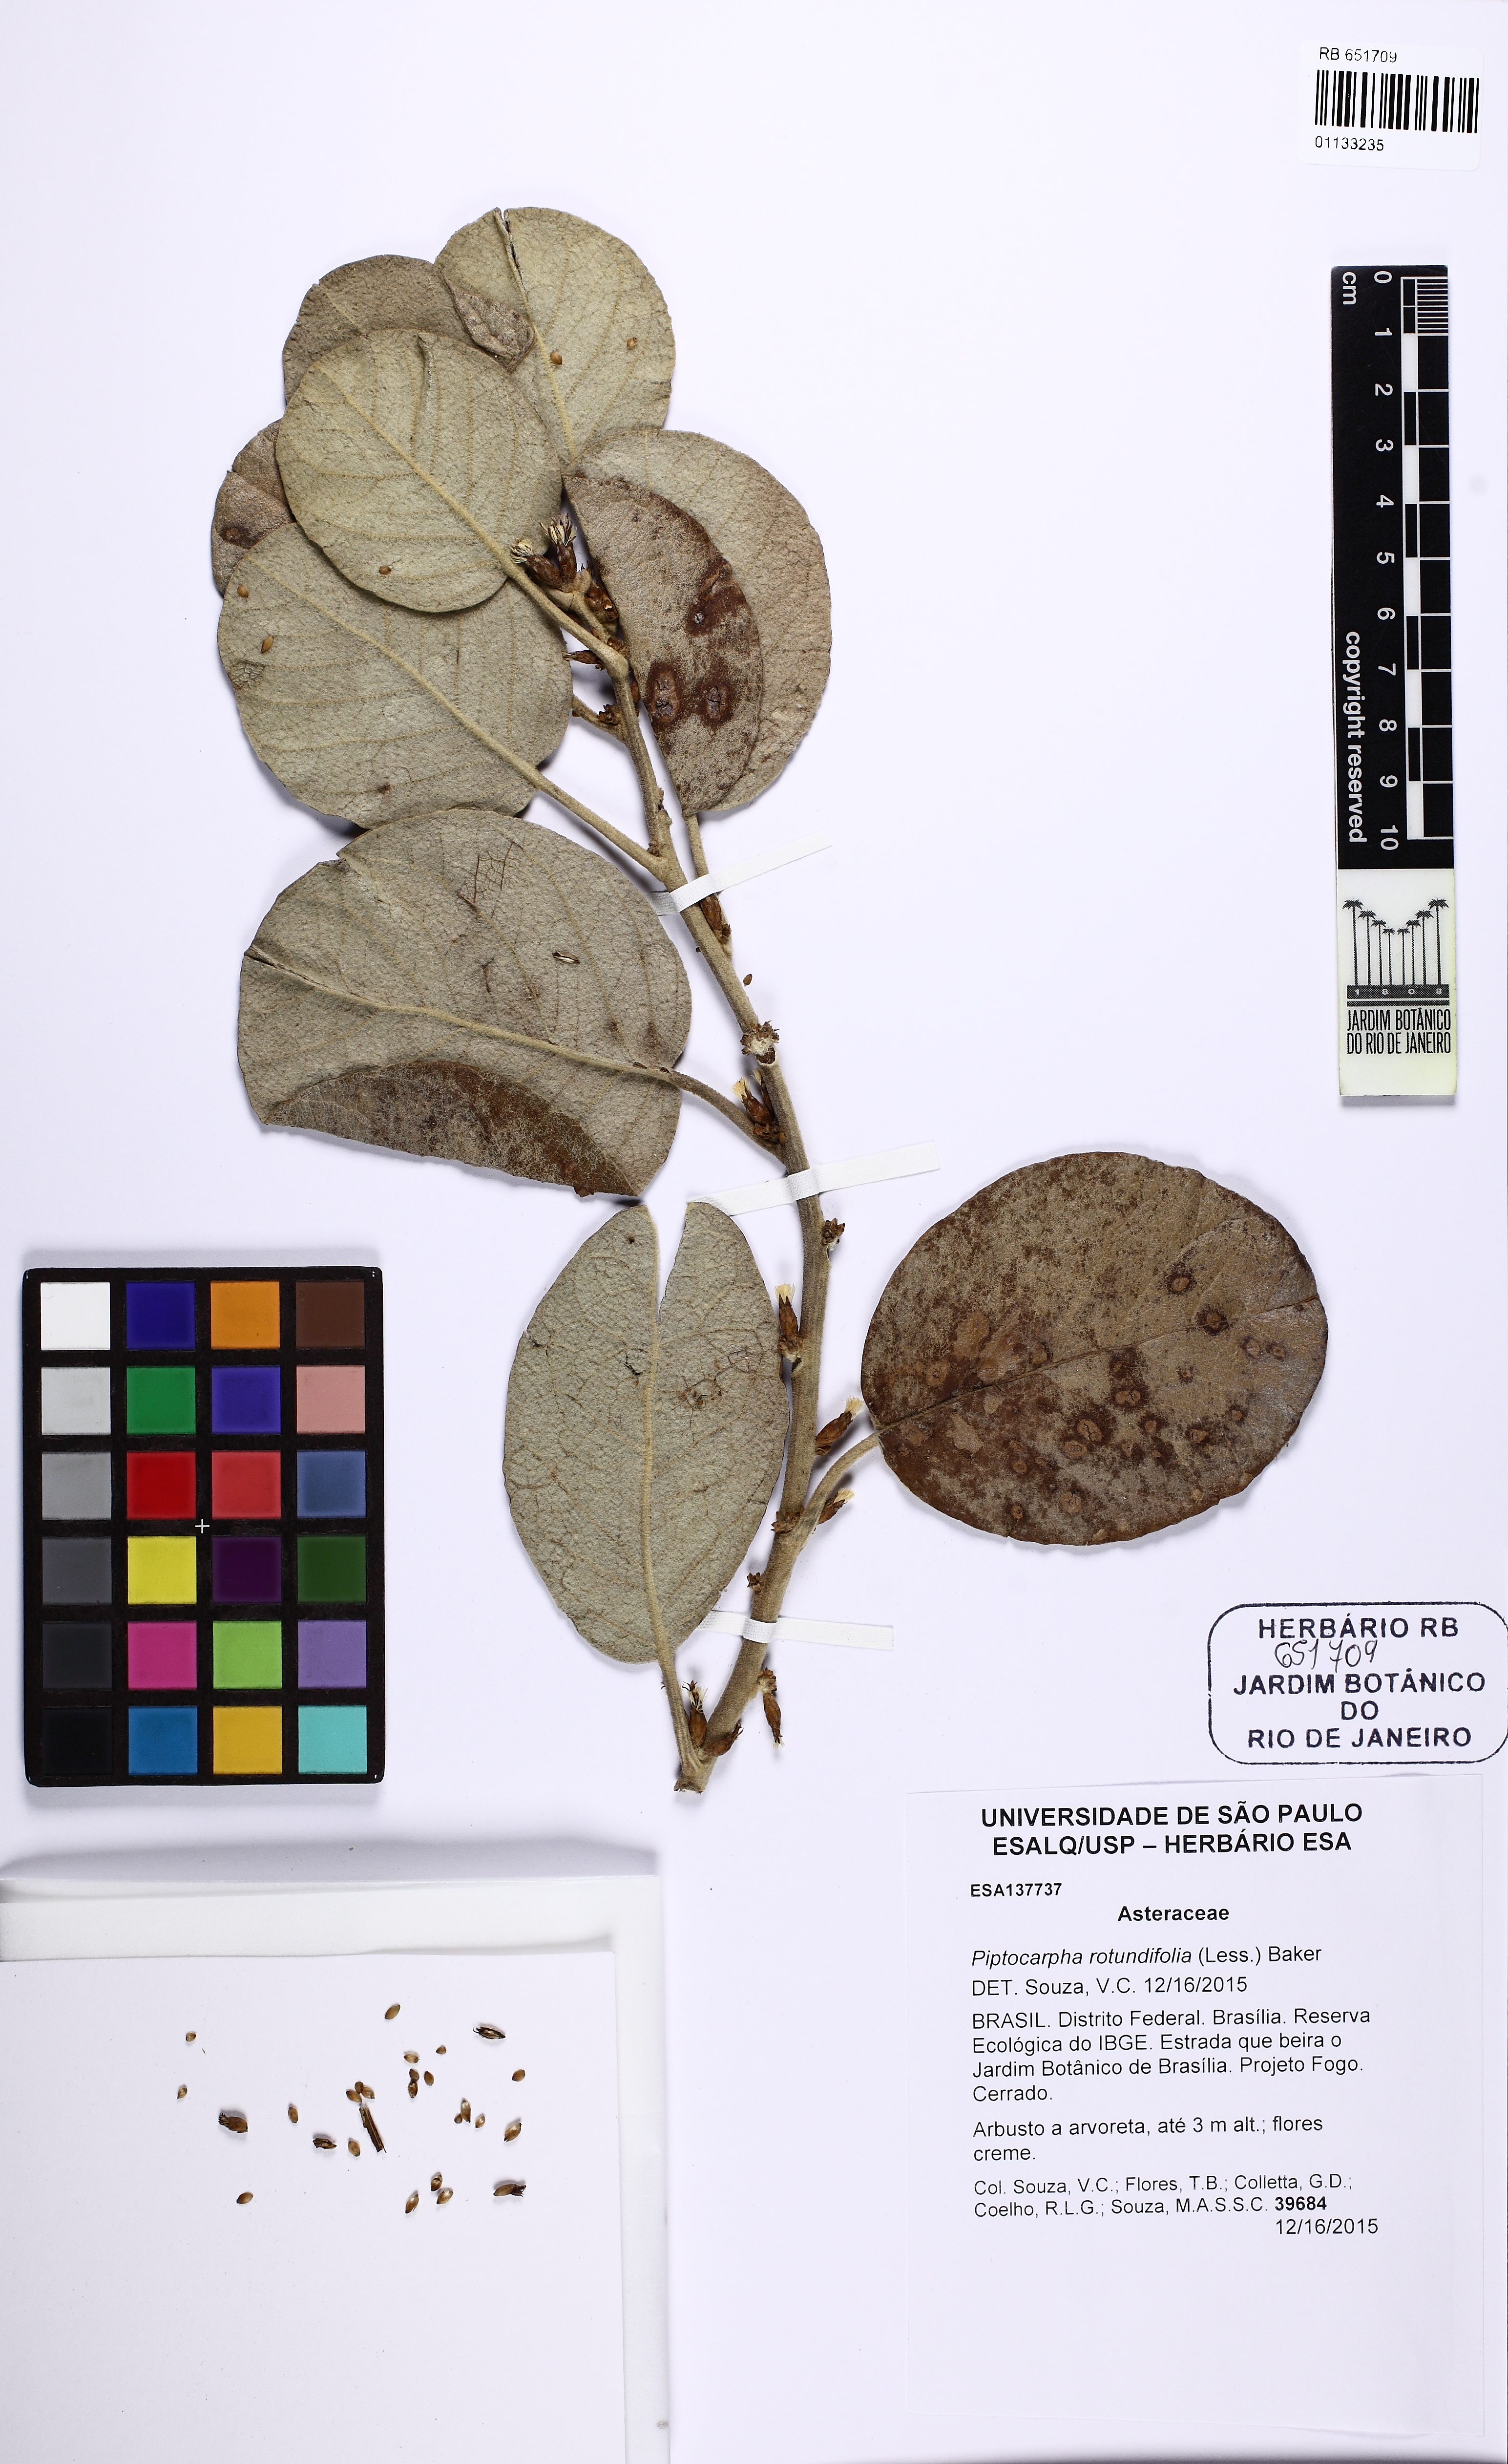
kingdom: Plantae
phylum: Tracheophyta
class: Magnoliopsida
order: Asterales
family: Asteraceae
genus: Piptocarpha
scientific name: Piptocarpha rotundifolia
